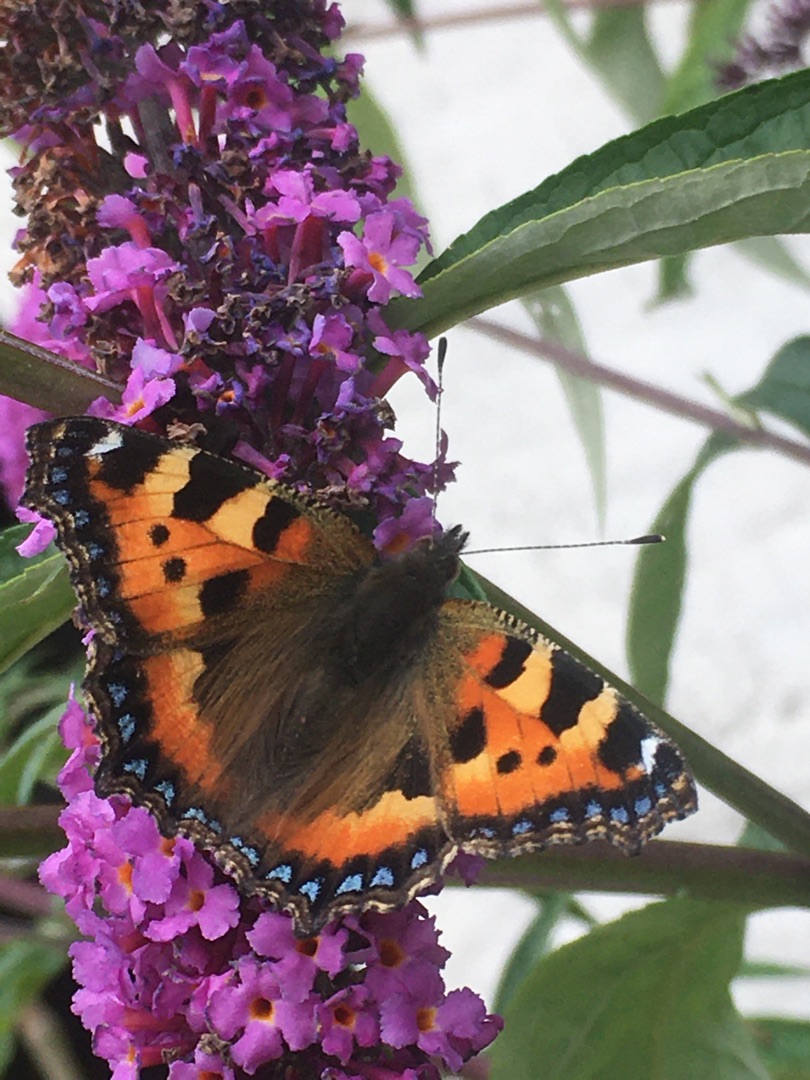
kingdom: Animalia
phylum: Arthropoda
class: Insecta
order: Lepidoptera
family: Nymphalidae
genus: Aglais
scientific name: Aglais urticae
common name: Nældens takvinge
